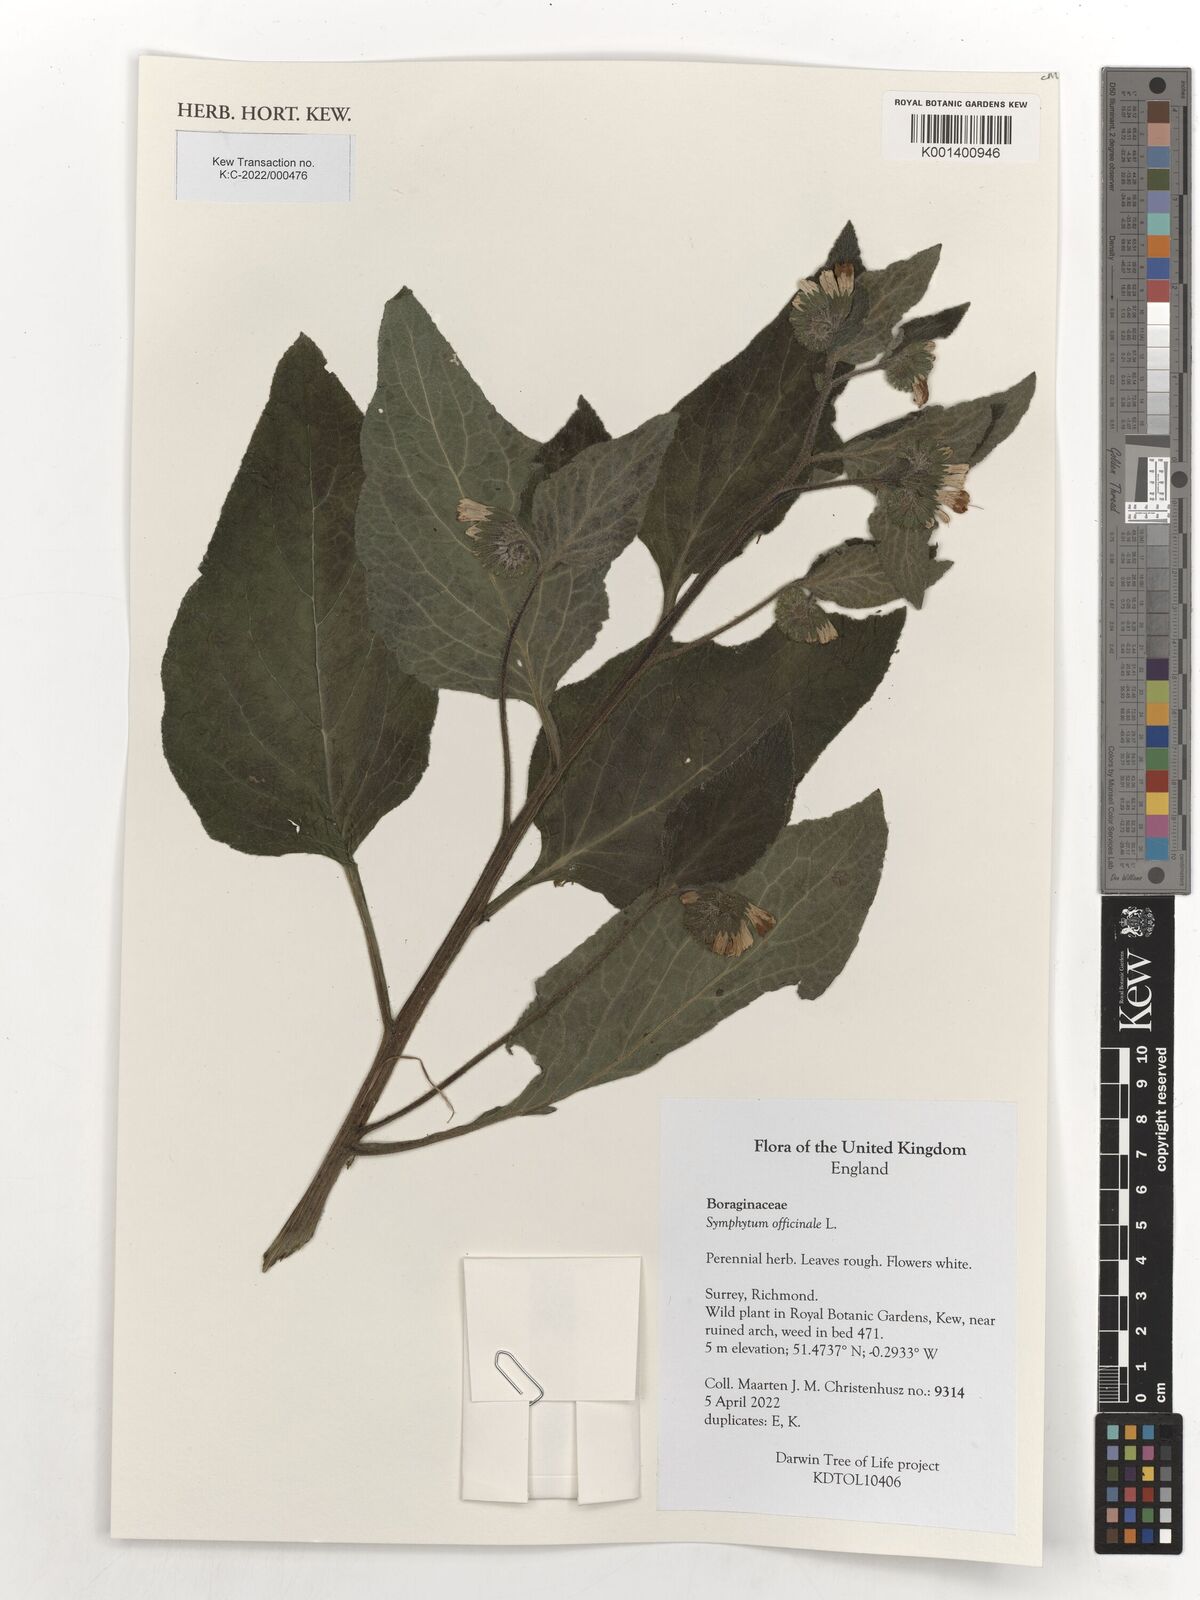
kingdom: Plantae
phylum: Tracheophyta
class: Magnoliopsida
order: Boraginales
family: Boraginaceae
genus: Symphytum
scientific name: Symphytum officinale
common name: Common comfrey
